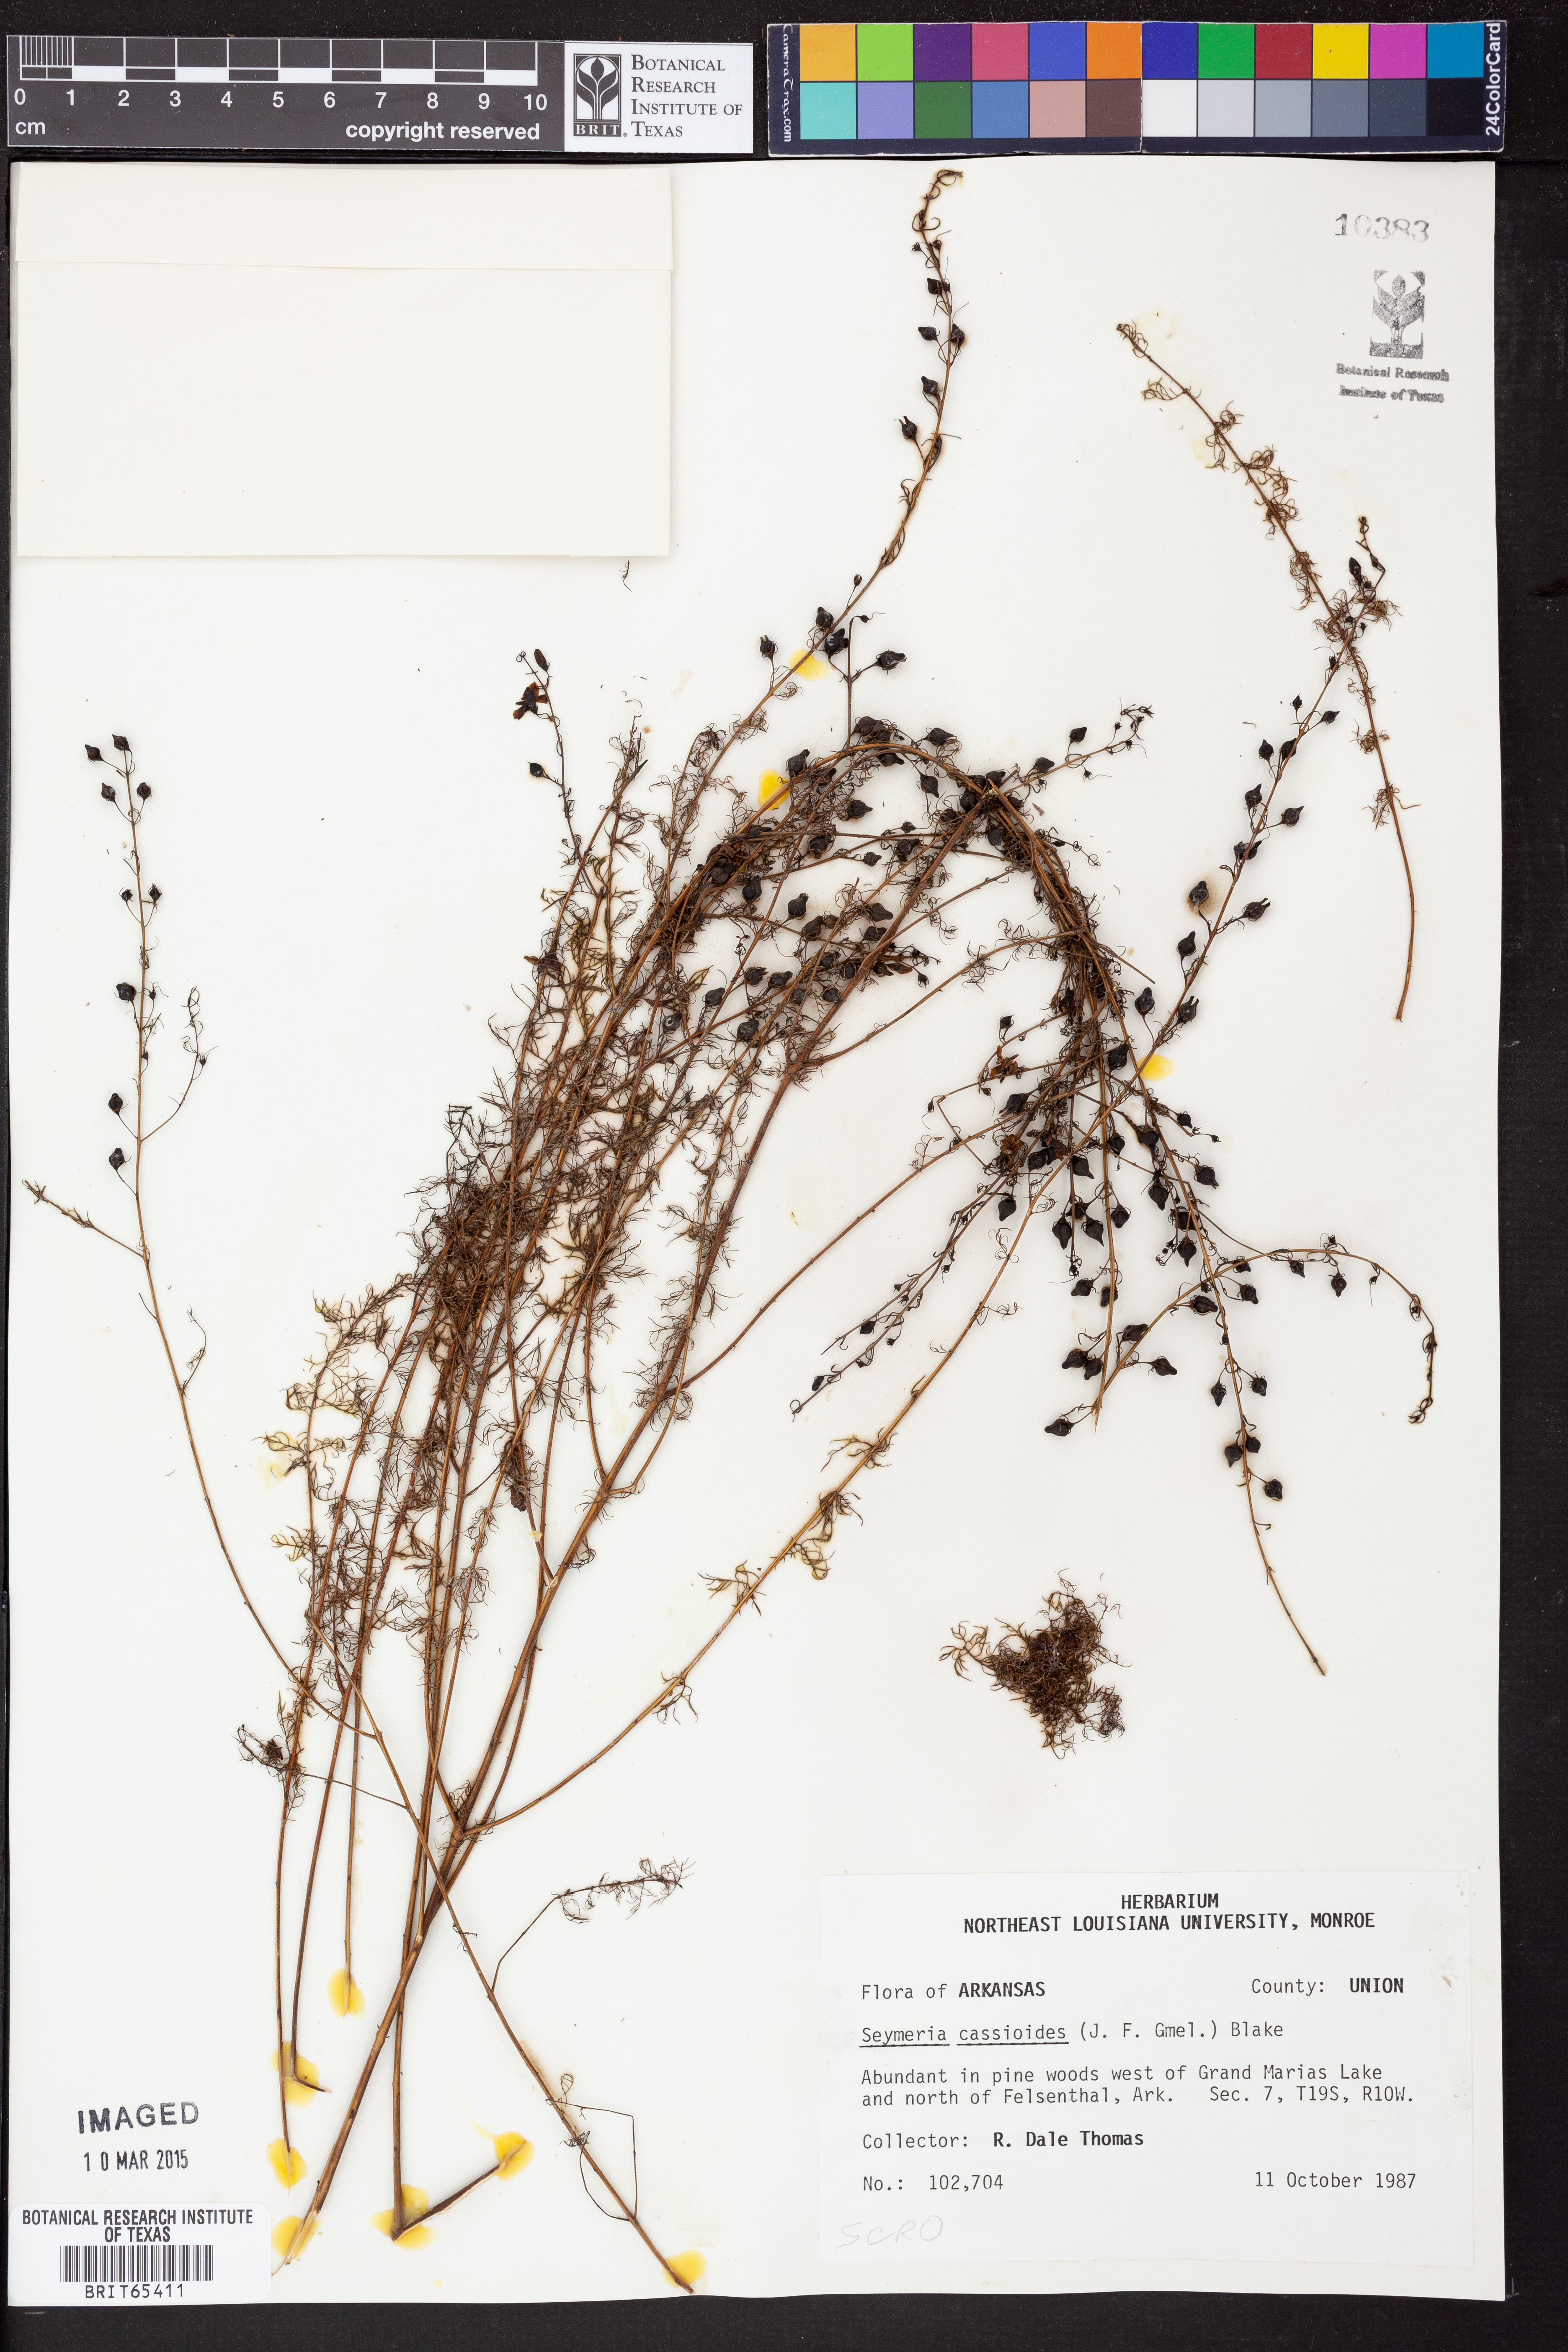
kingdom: Plantae
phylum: Tracheophyta
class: Magnoliopsida
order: Lamiales
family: Orobanchaceae
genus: Seymeria
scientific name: Seymeria cassioides
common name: Yaupon black-senna
